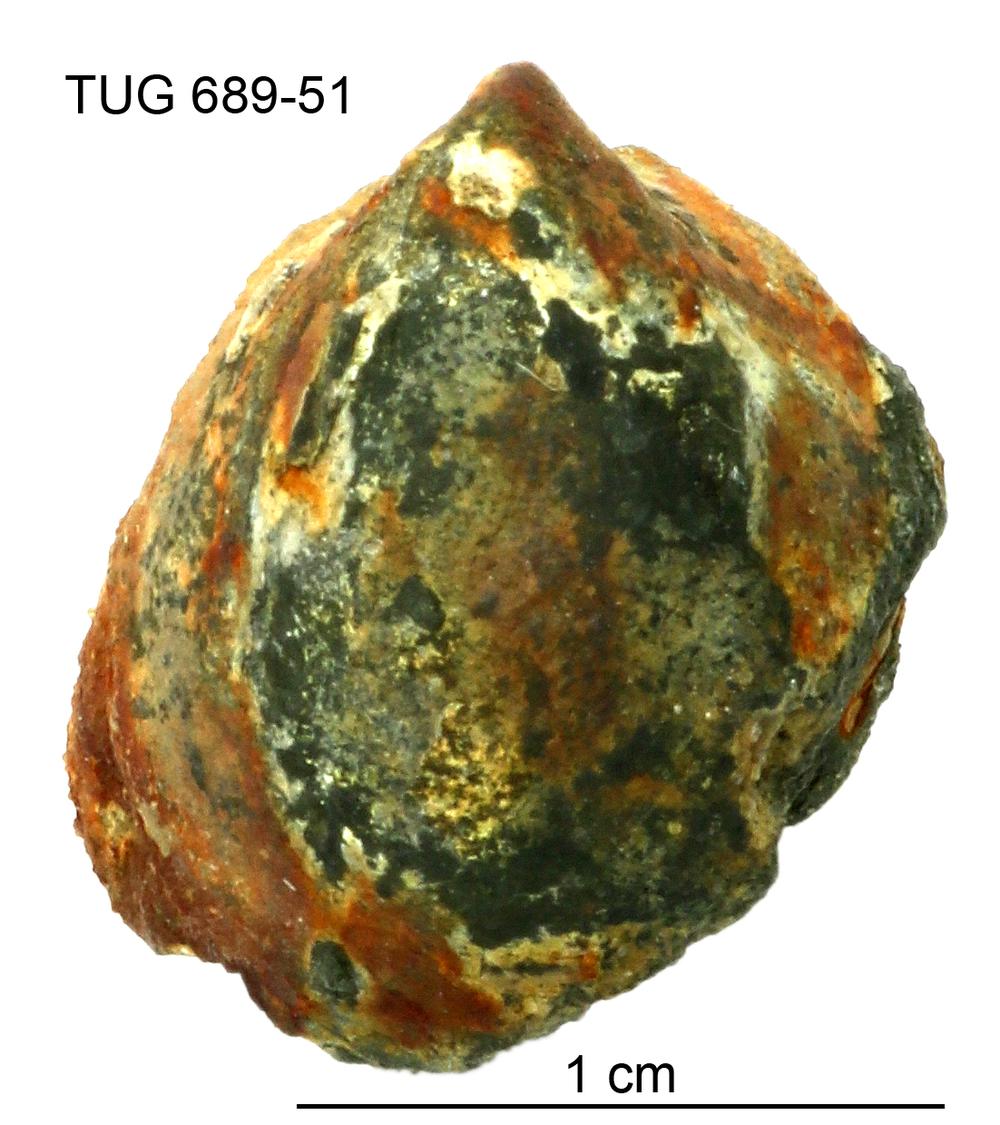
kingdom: Animalia
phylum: Mollusca
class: Gastropoda
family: Archinacellidae
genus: Archinacella
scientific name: Archinacella rostrata
